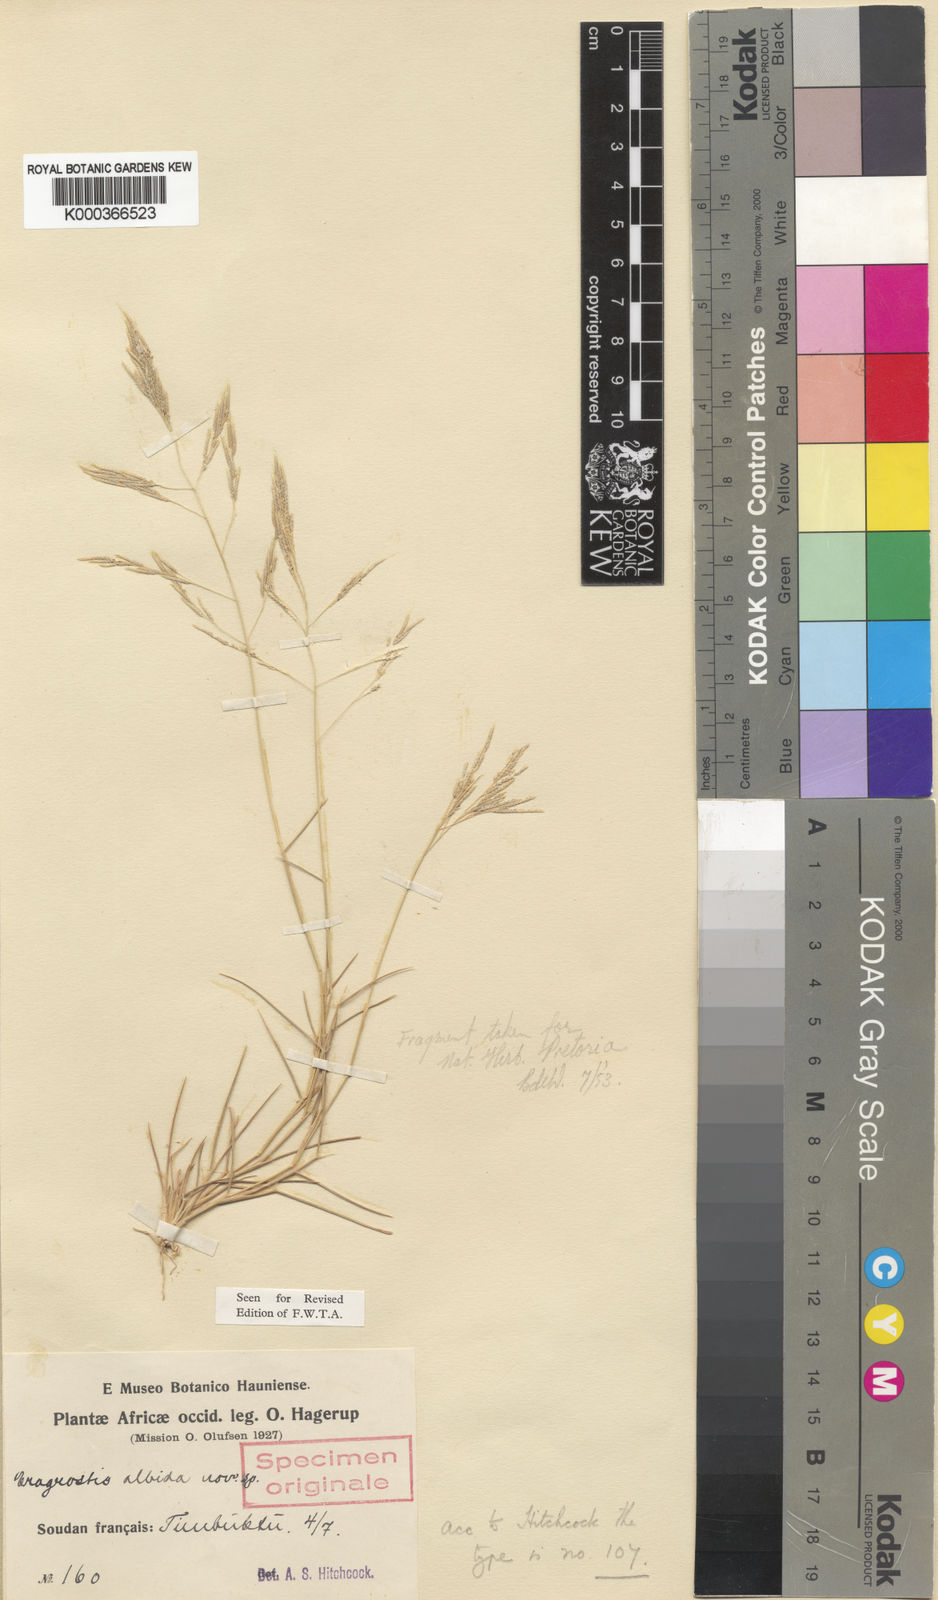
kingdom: Plantae
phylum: Tracheophyta
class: Liliopsida
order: Poales
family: Poaceae
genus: Eragrostis
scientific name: Eragrostis aegyptiaca
